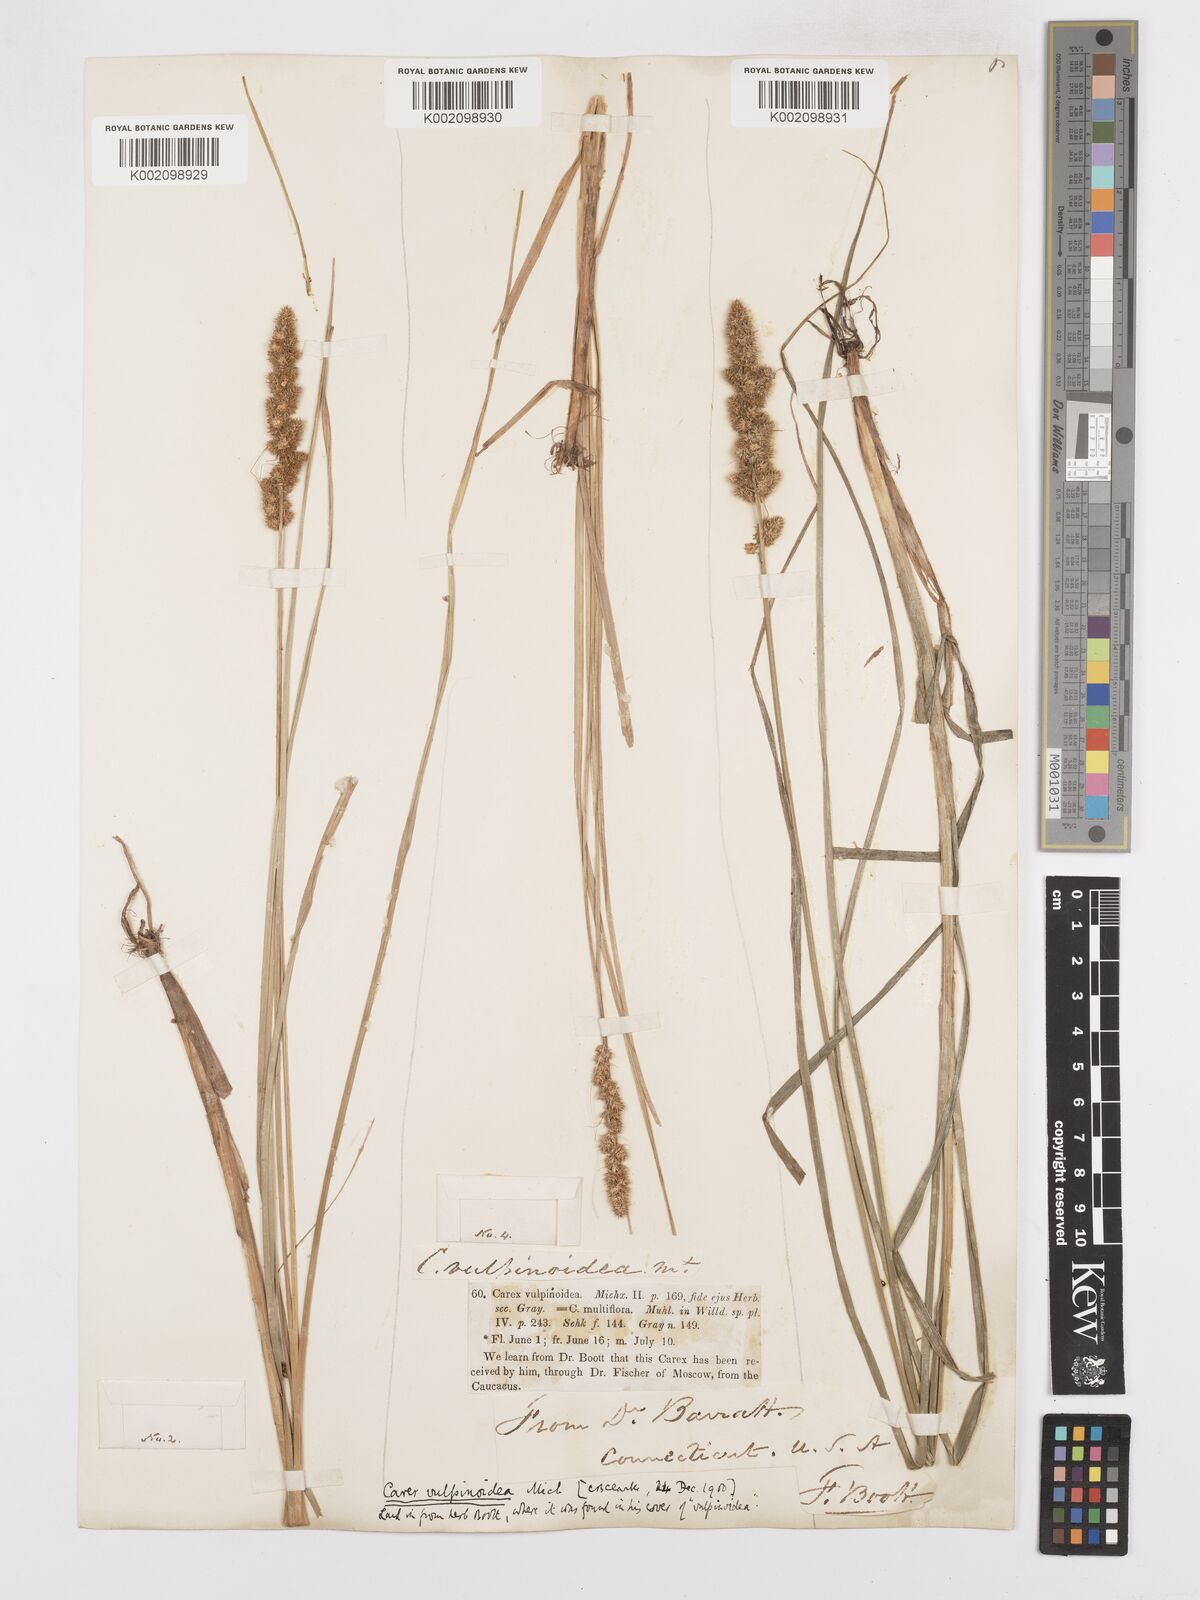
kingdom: Plantae
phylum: Tracheophyta
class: Liliopsida
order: Poales
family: Cyperaceae
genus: Carex
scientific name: Carex vulpinoidea
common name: American fox-sedge
